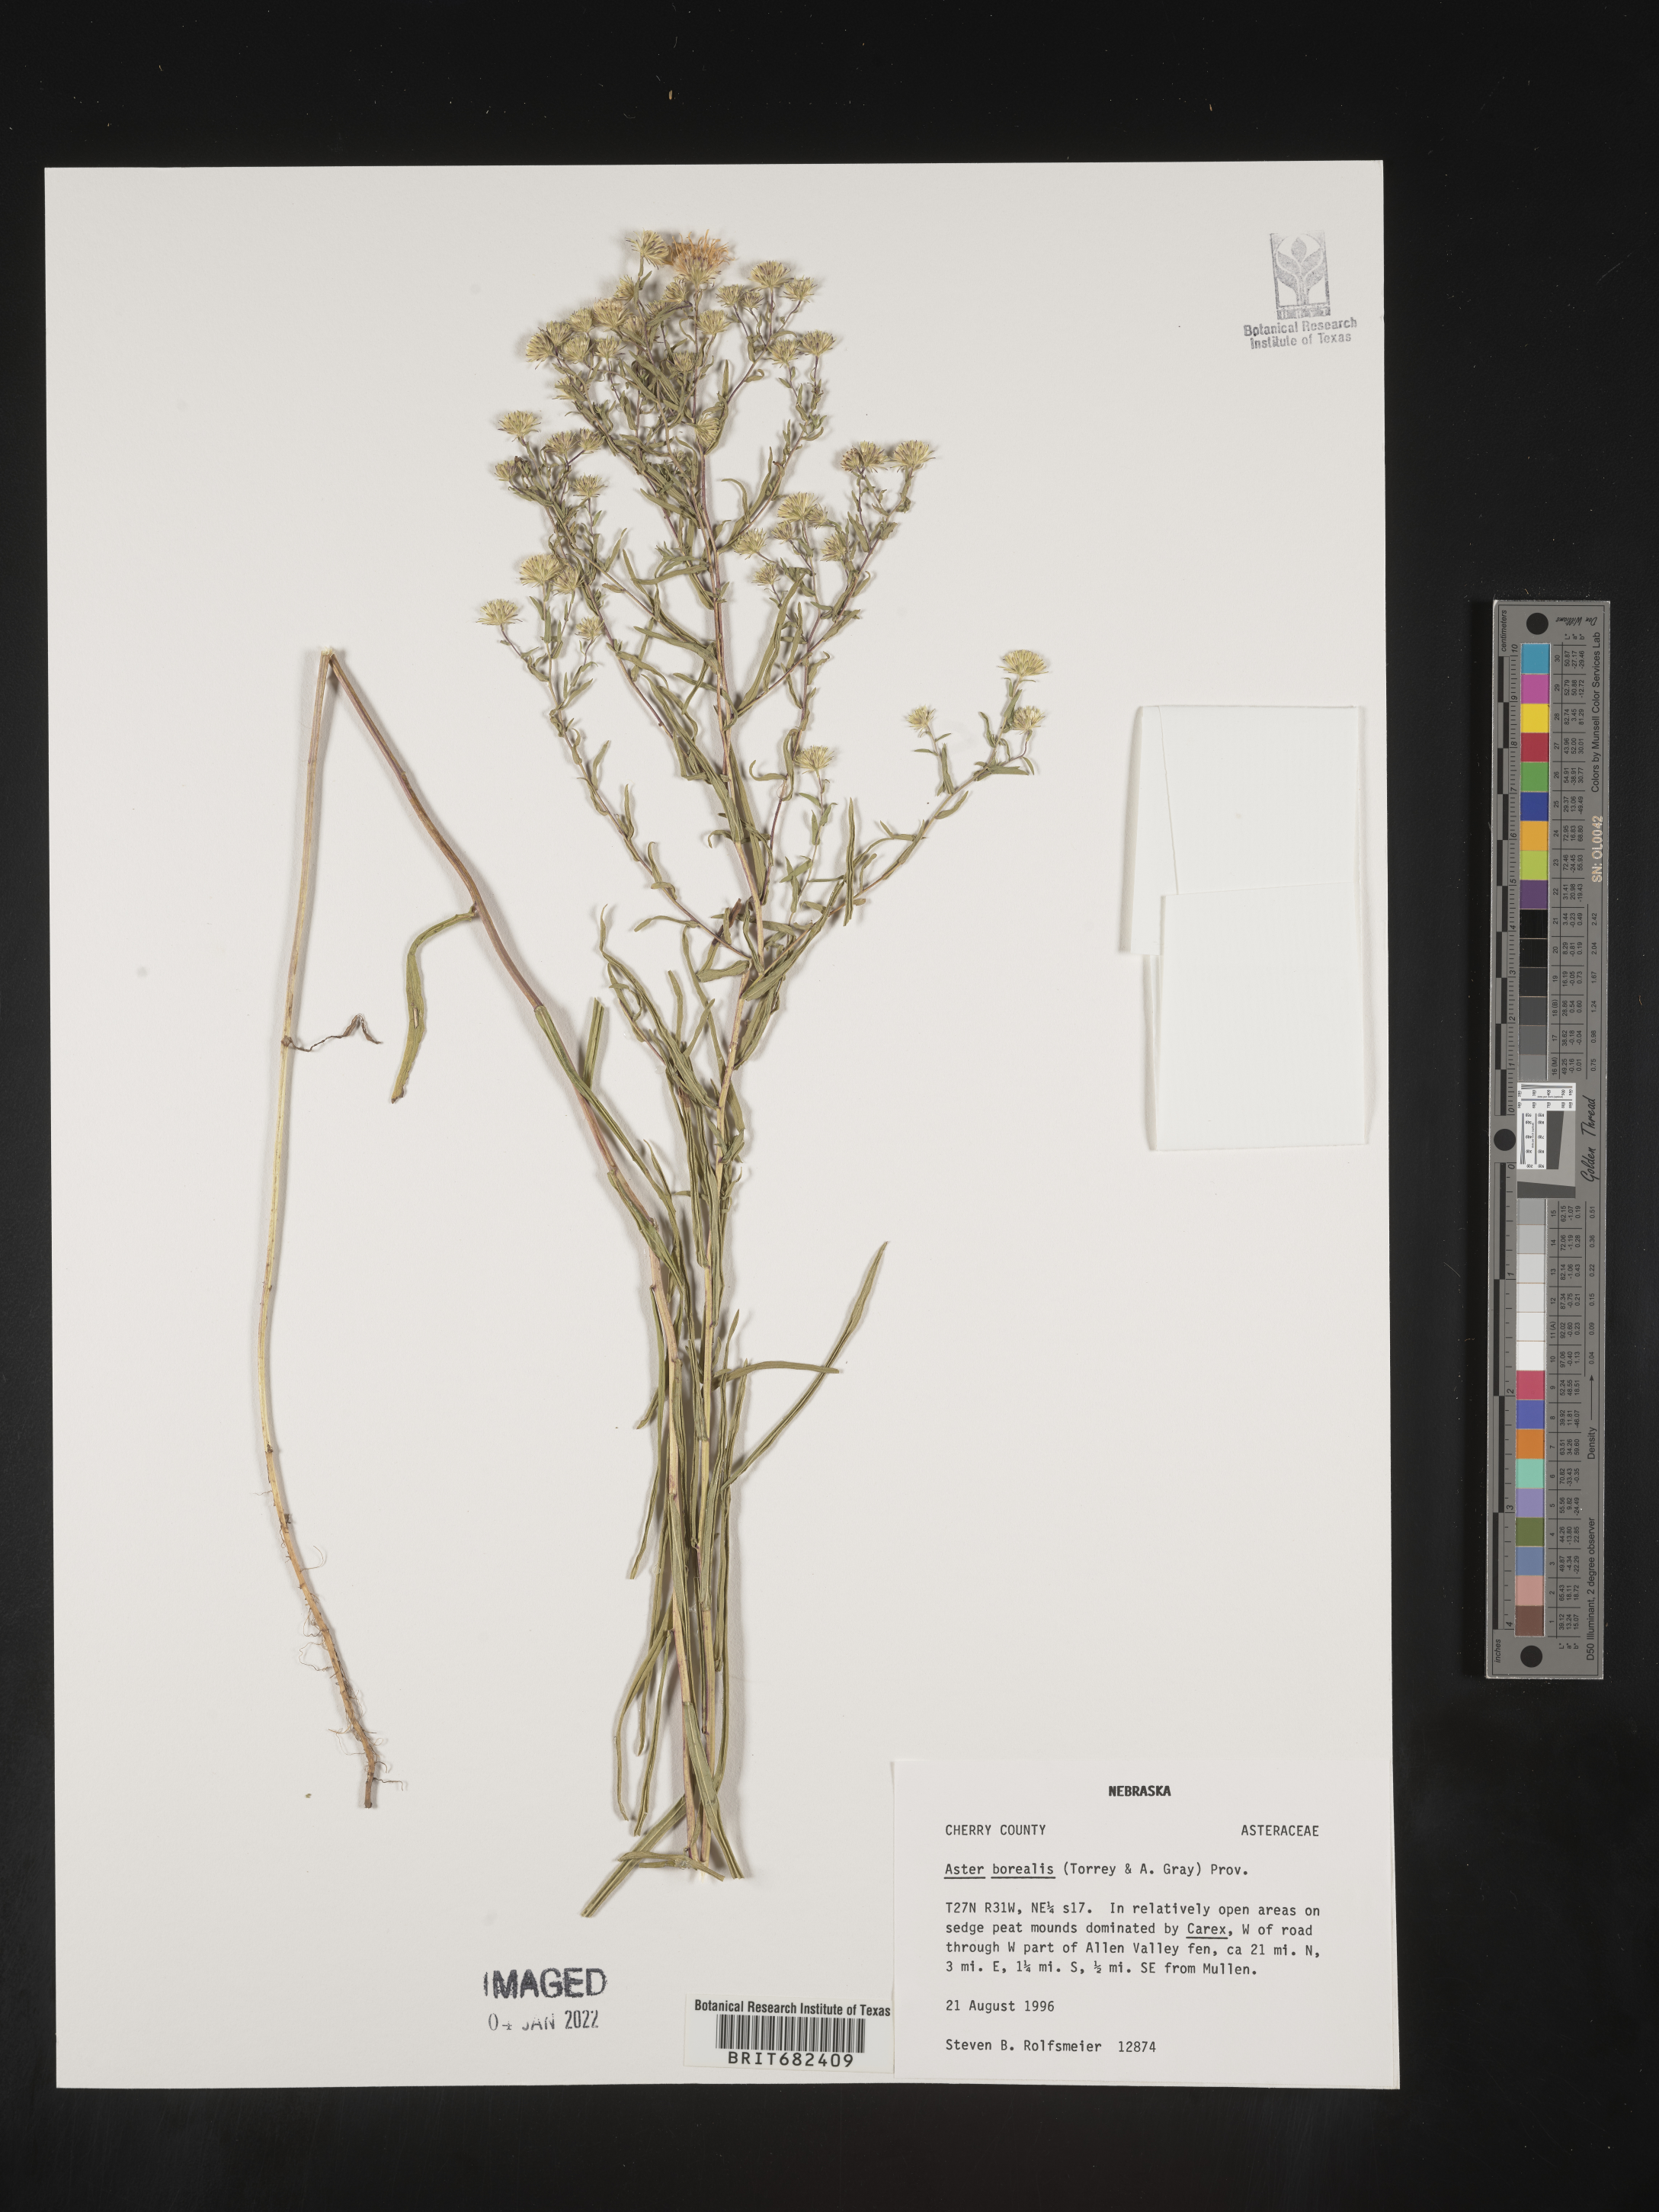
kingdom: Plantae
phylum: Tracheophyta
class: Magnoliopsida
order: Asterales
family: Asteraceae
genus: Aster
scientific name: Aster
